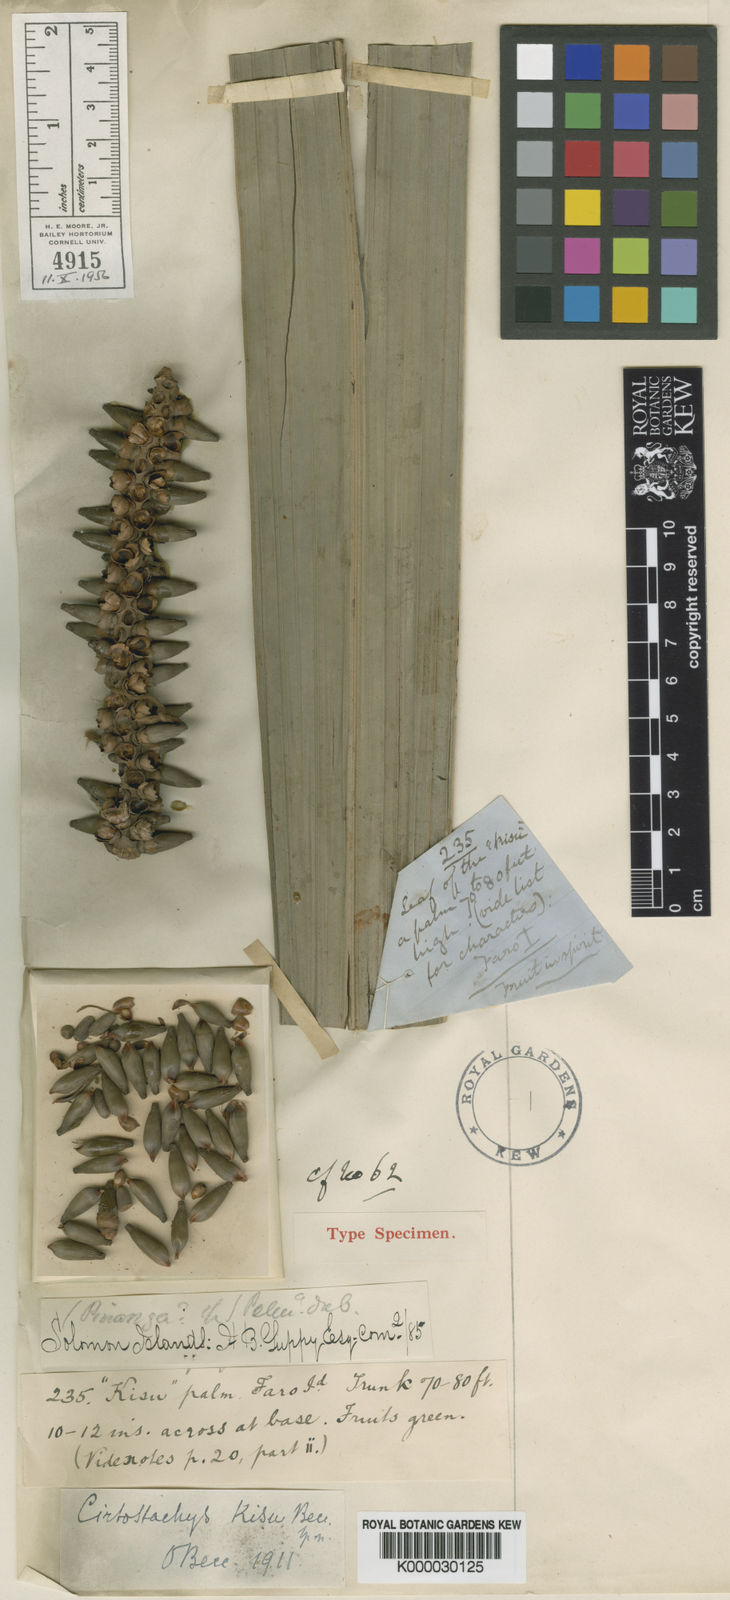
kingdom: Plantae
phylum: Tracheophyta
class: Liliopsida
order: Arecales
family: Arecaceae
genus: Cyrtostachys
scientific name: Cyrtostachys loriae
